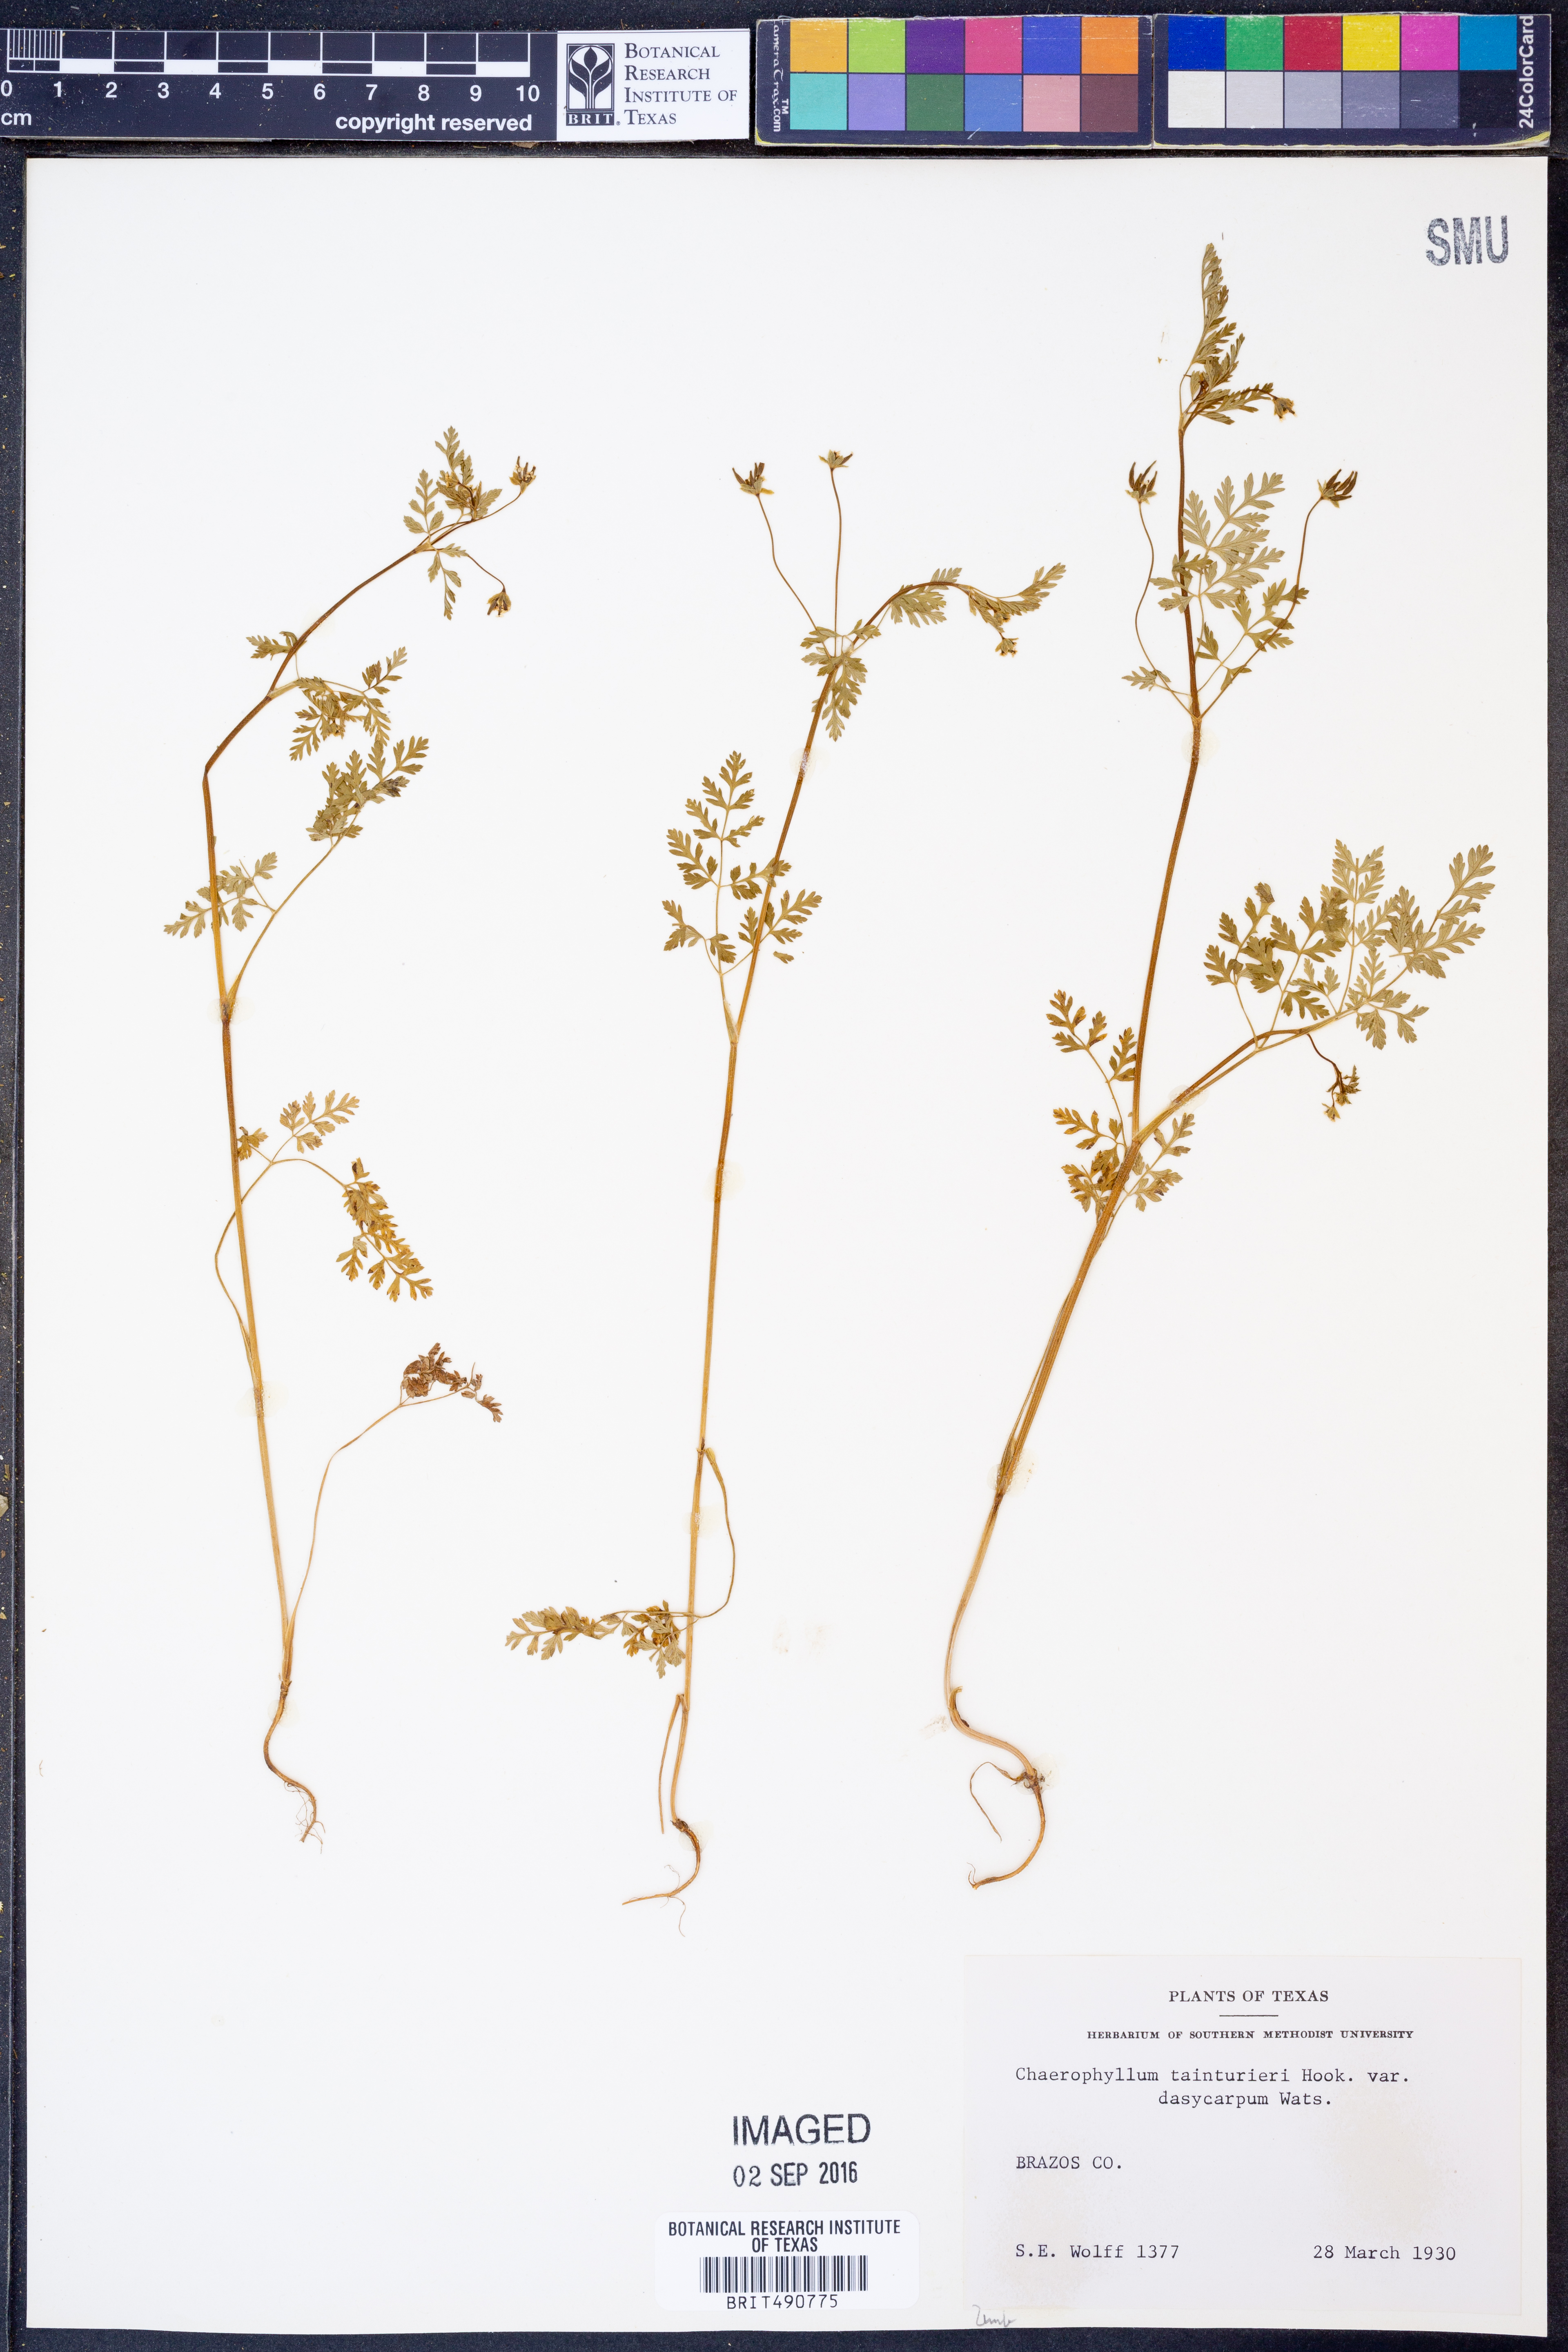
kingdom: Plantae
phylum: Tracheophyta
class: Magnoliopsida
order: Apiales
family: Apiaceae
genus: Chaerophyllum
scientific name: Chaerophyllum dasycarpum
